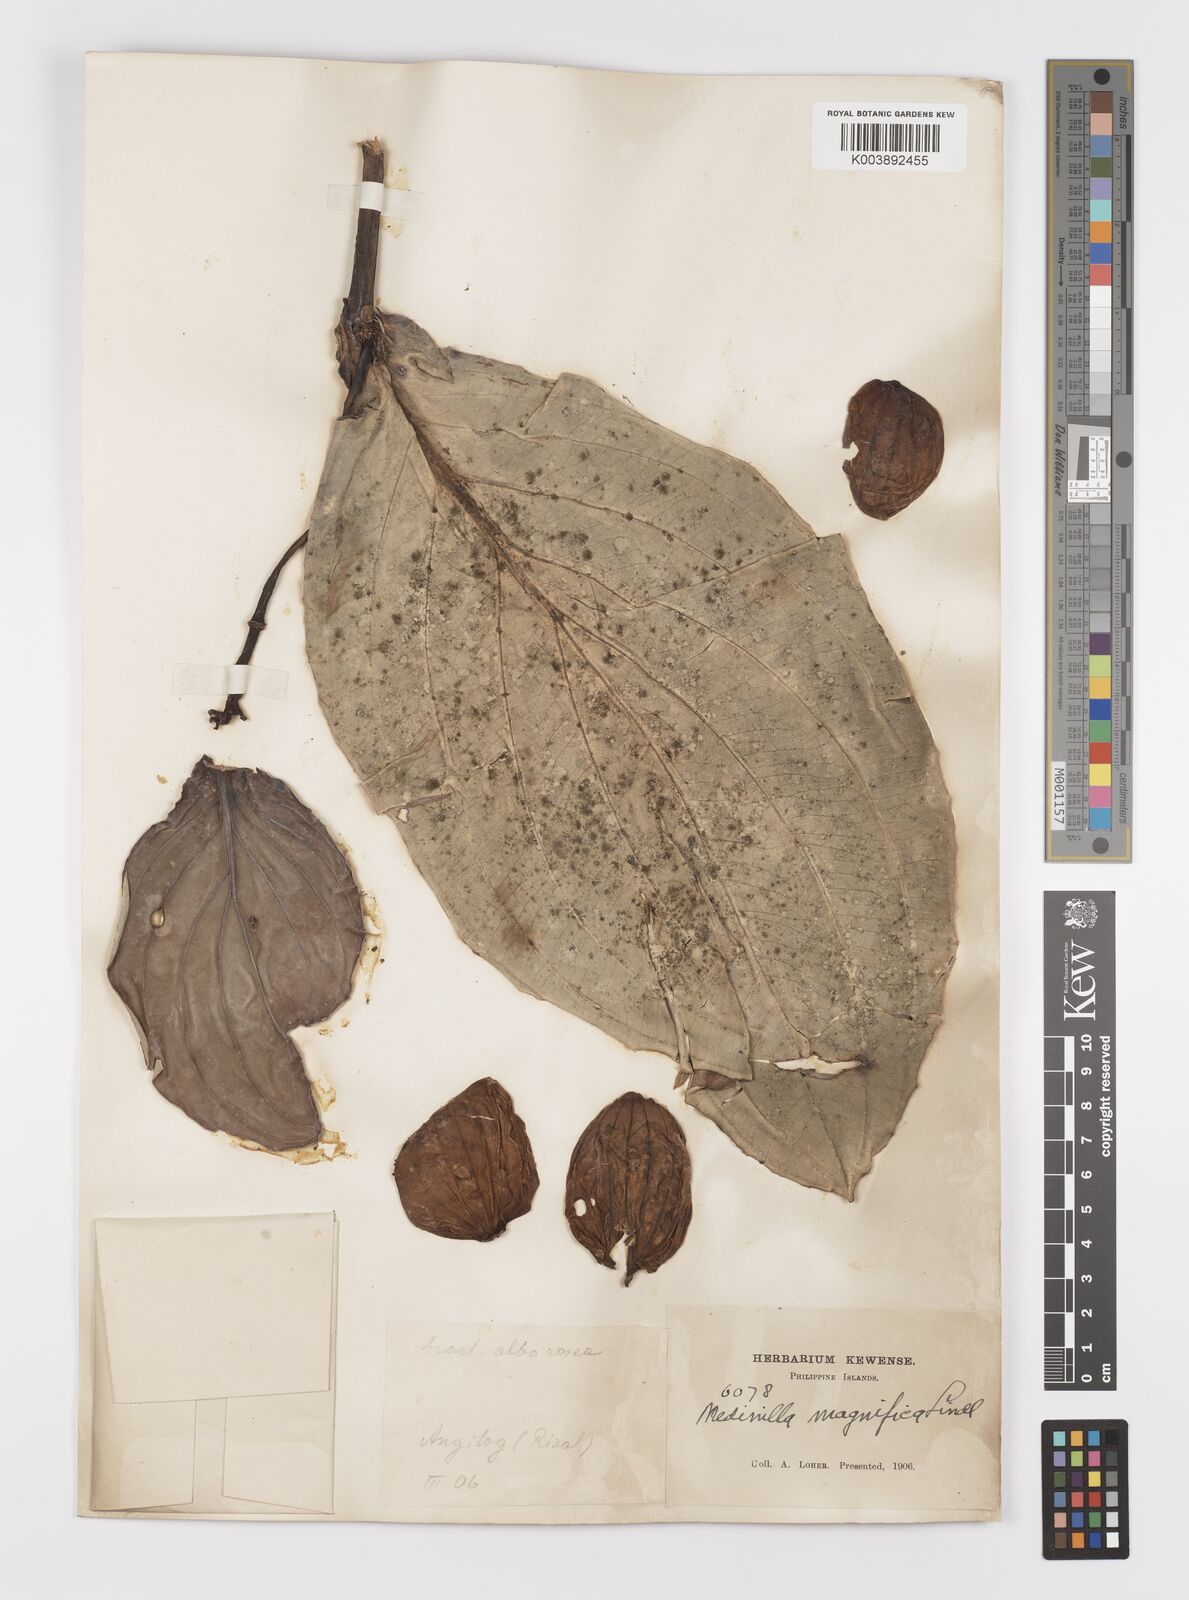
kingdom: Plantae
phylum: Tracheophyta
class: Magnoliopsida
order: Myrtales
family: Melastomataceae
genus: Medinilla
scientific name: Medinilla magnifica
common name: Showy medinilla
